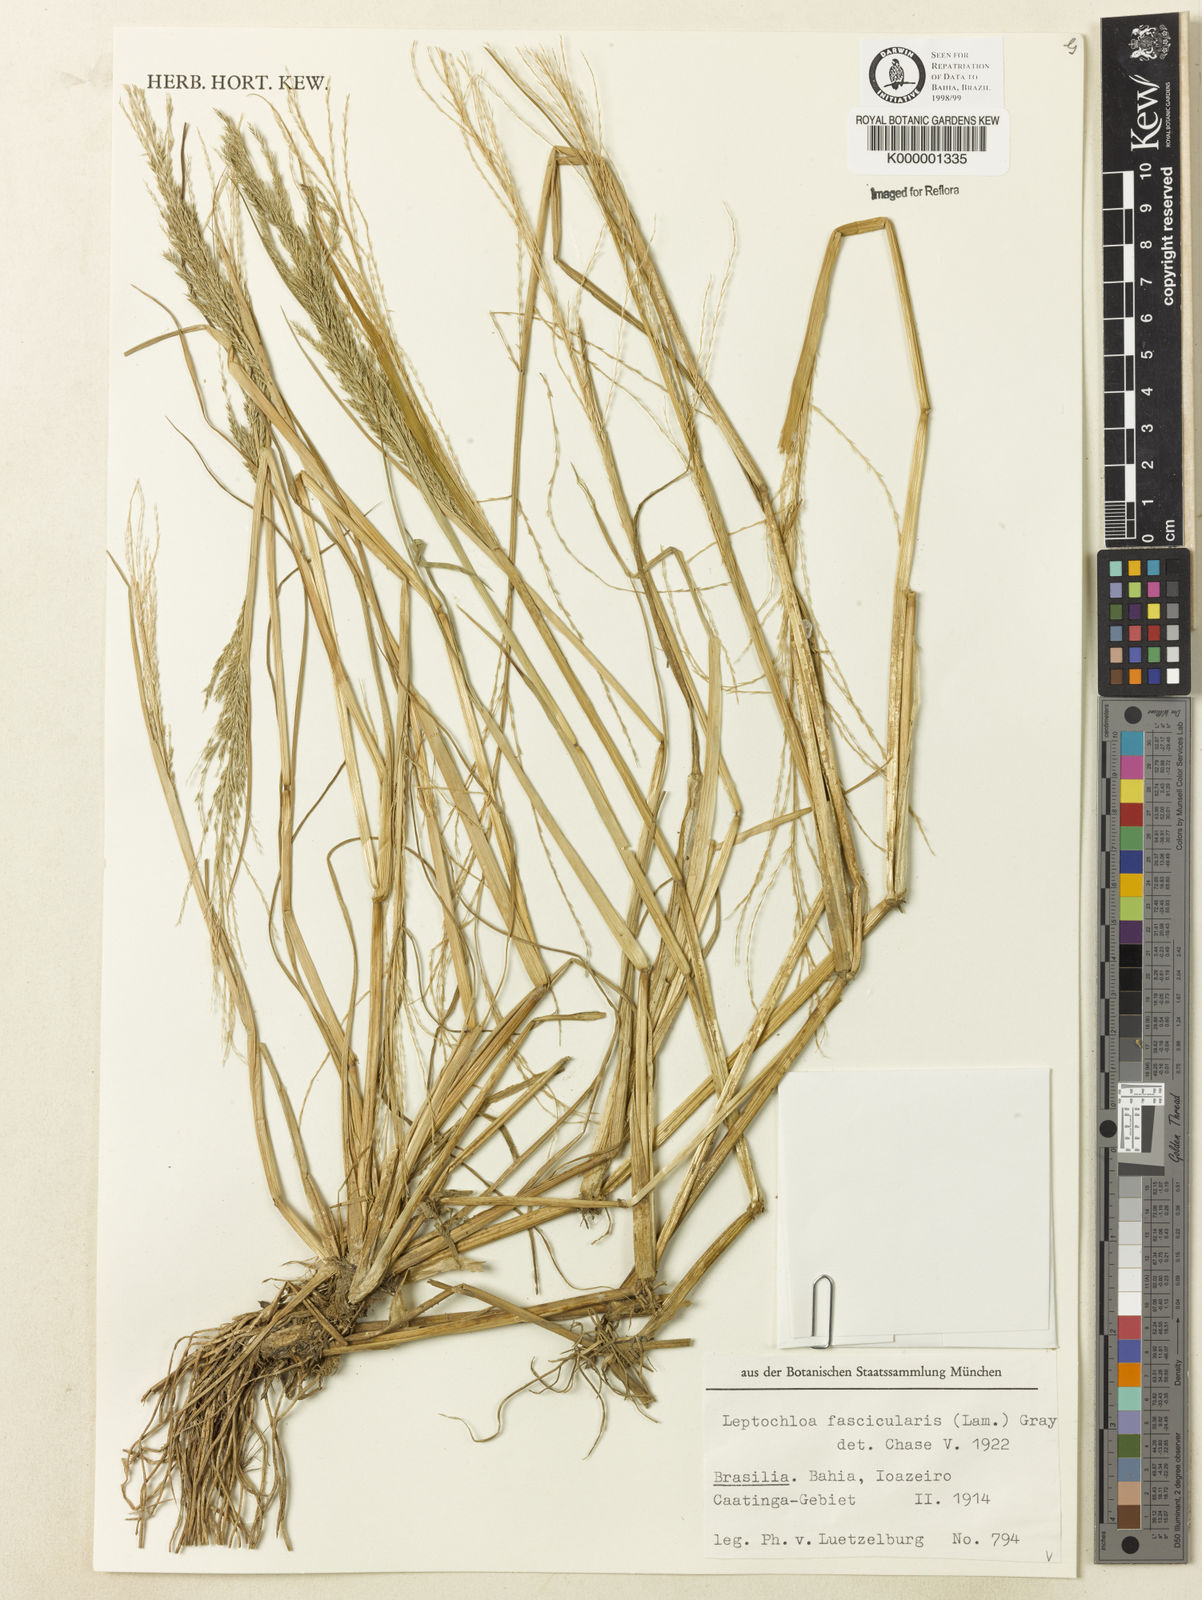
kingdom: Plantae
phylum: Tracheophyta
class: Liliopsida
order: Poales
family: Poaceae
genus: Diplachne
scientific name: Diplachne fusca
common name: Brown beetle grass
